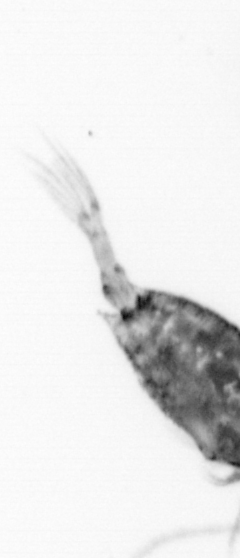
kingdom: Animalia
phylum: Arthropoda
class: Copepoda
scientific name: Copepoda
